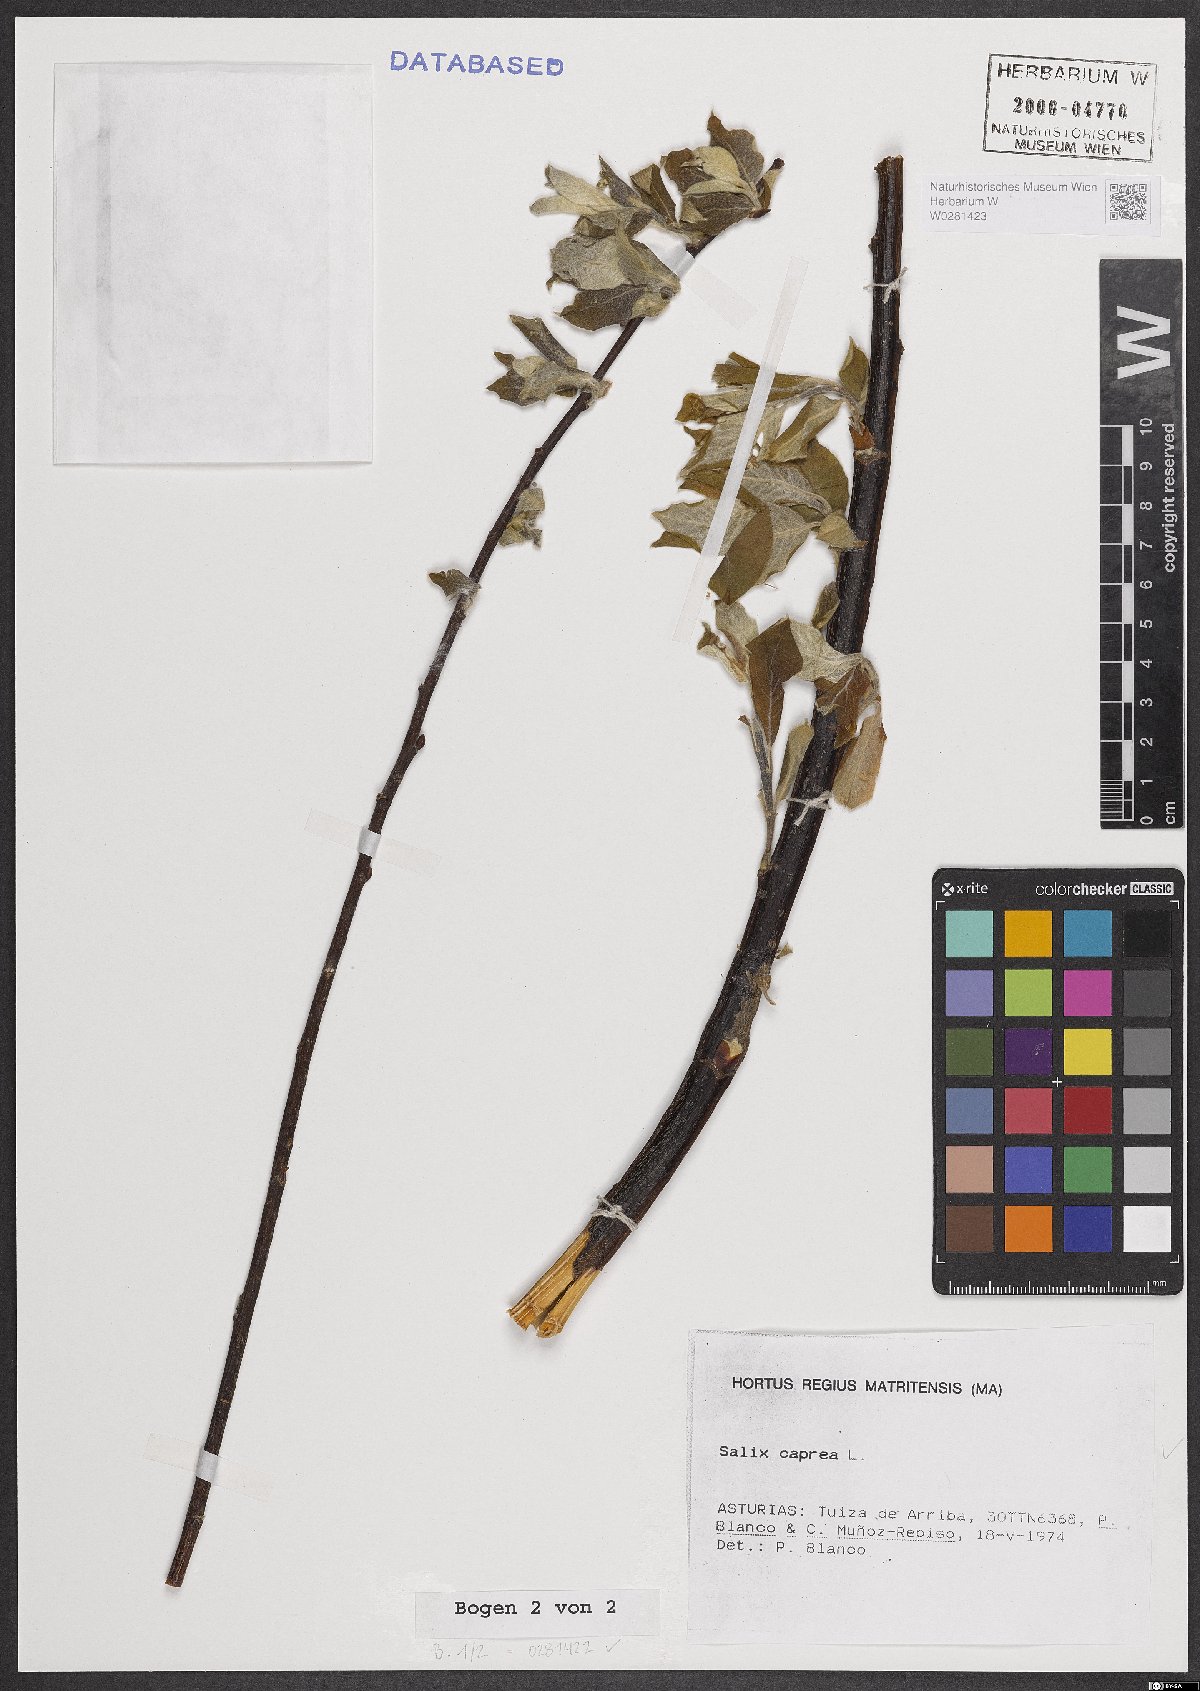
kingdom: Plantae
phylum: Tracheophyta
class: Magnoliopsida
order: Malpighiales
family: Salicaceae
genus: Salix
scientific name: Salix caprea
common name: Goat willow
